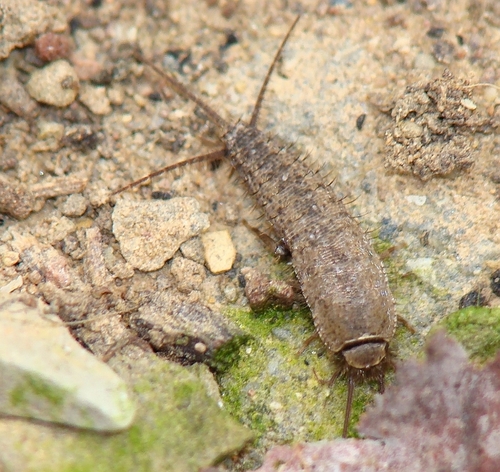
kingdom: Animalia
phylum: Arthropoda
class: Insecta
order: Zygentoma
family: Lepismatidae
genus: Ctenolepisma
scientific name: Ctenolepisma ciliata
